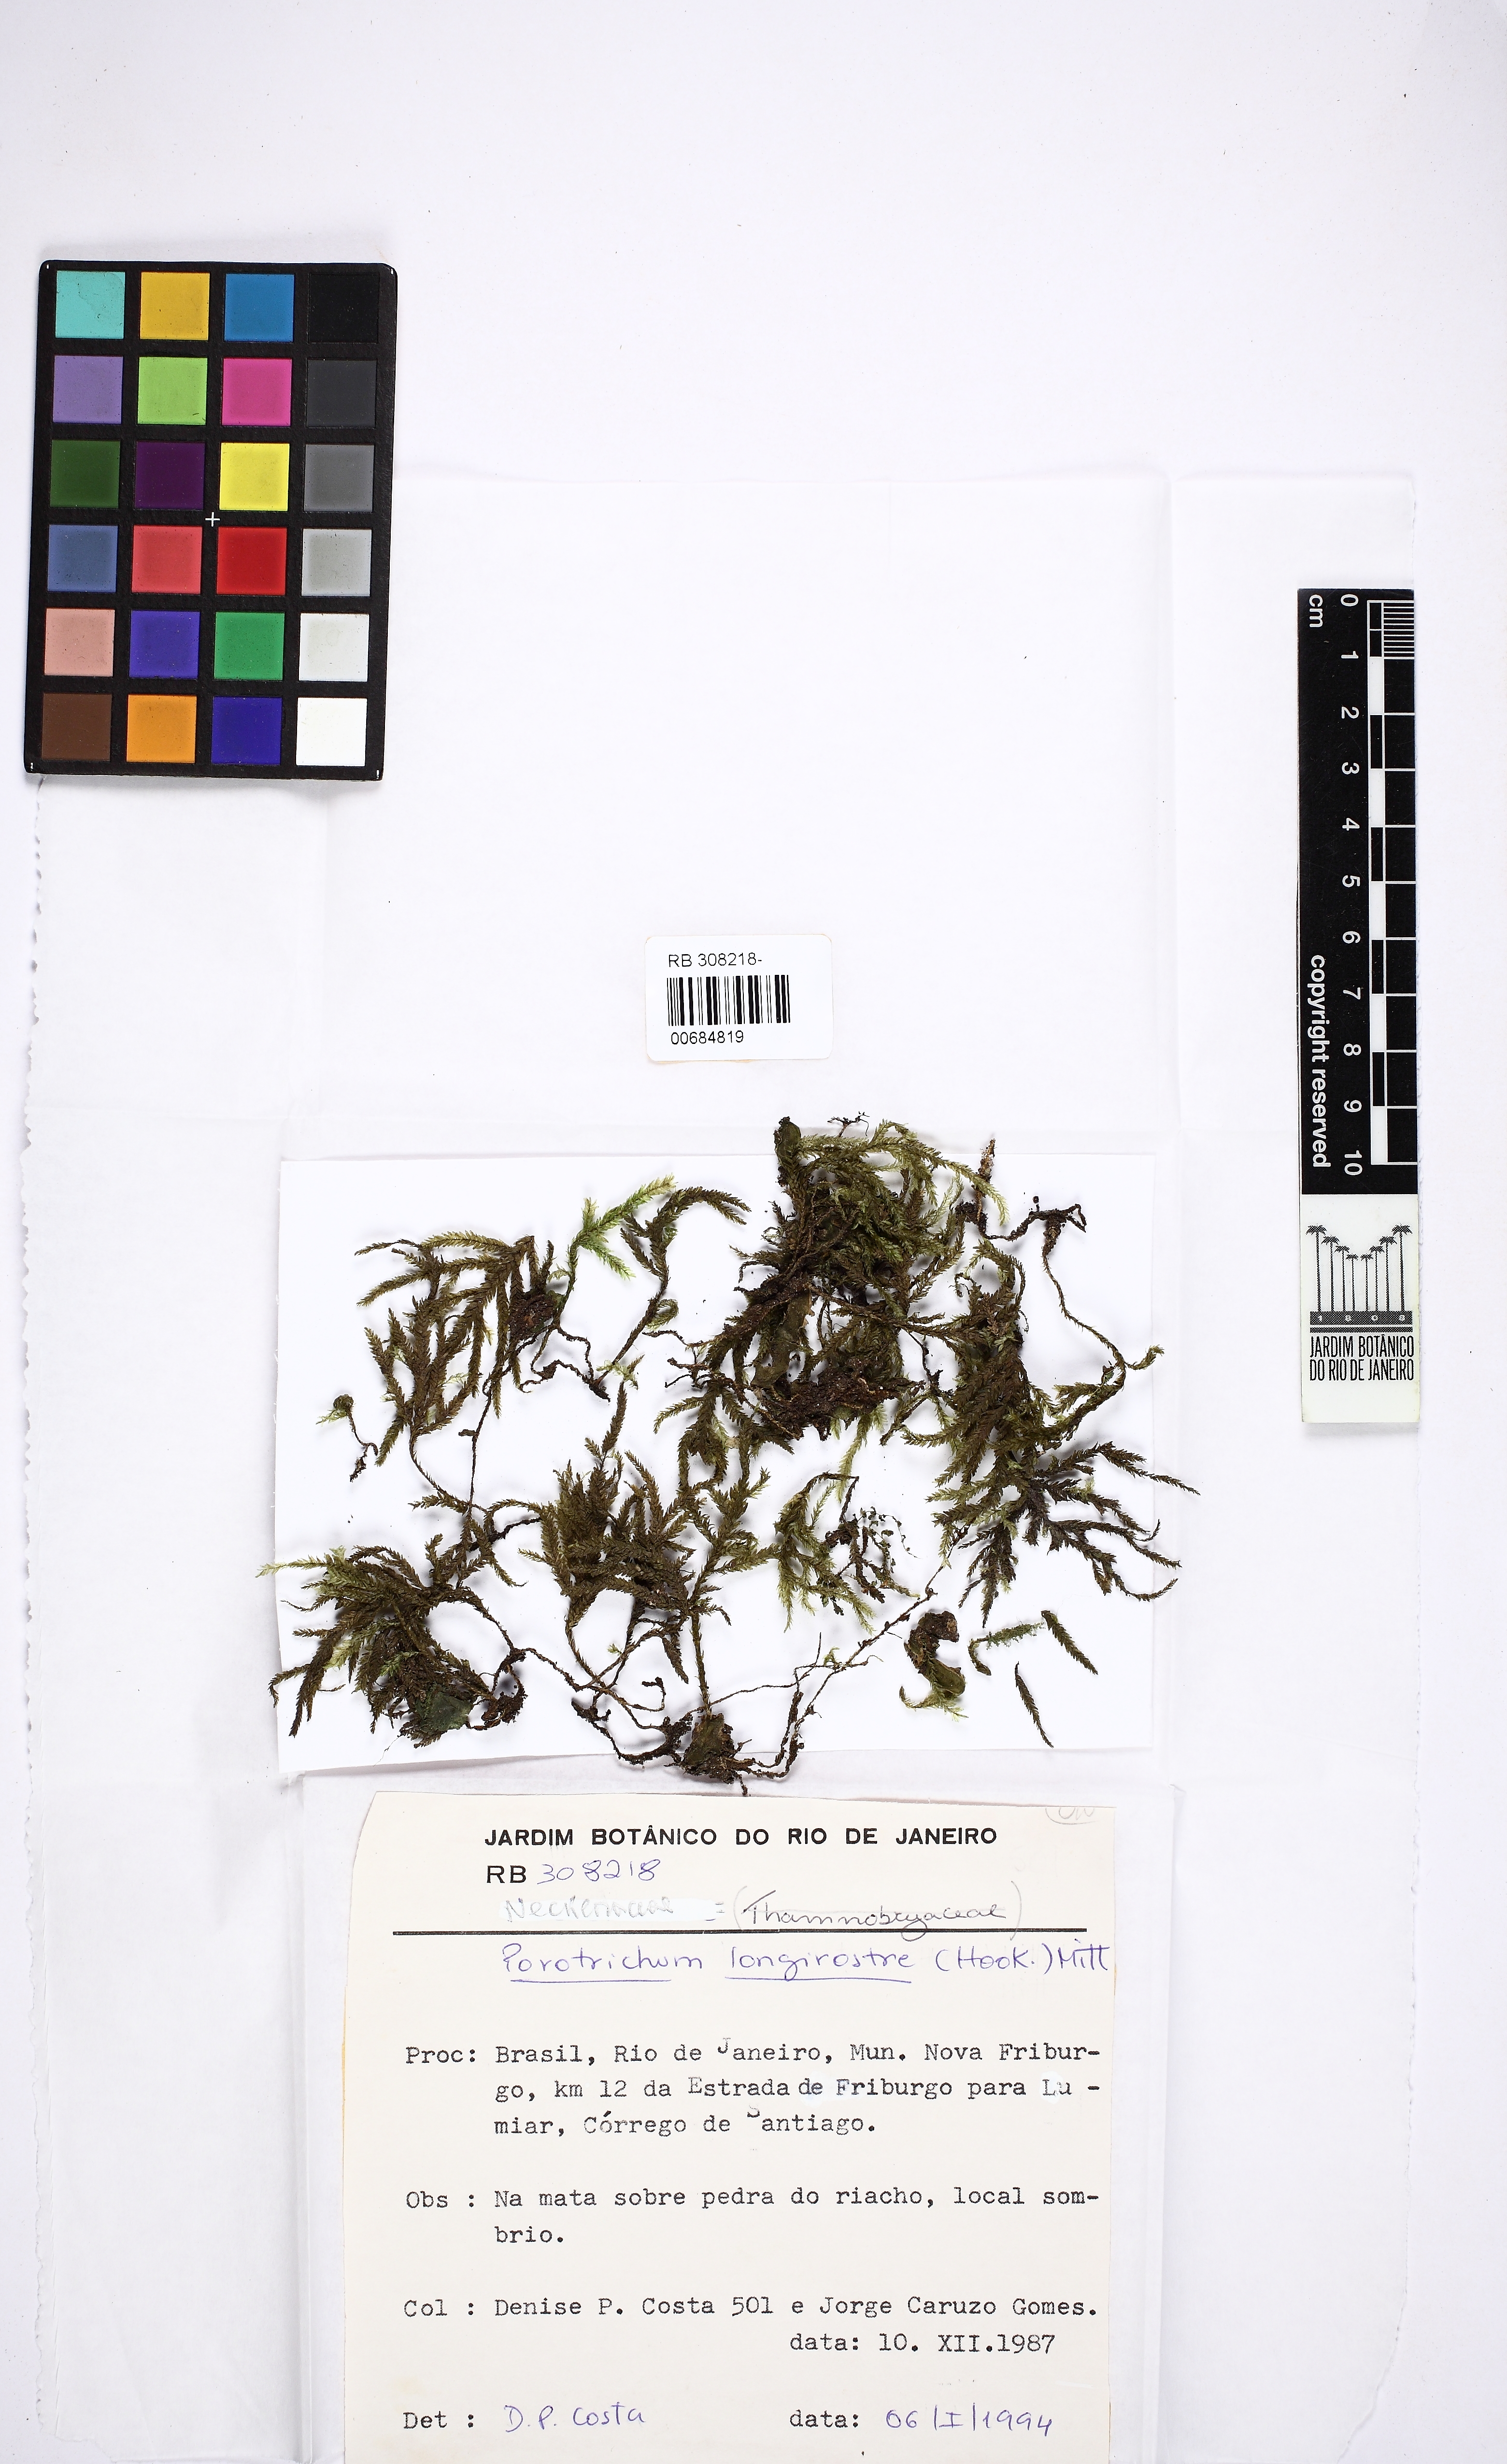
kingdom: Plantae
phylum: Bryophyta
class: Bryopsida
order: Hypnales
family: Neckeraceae
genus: Porotrichum
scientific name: Porotrichum longirostre
